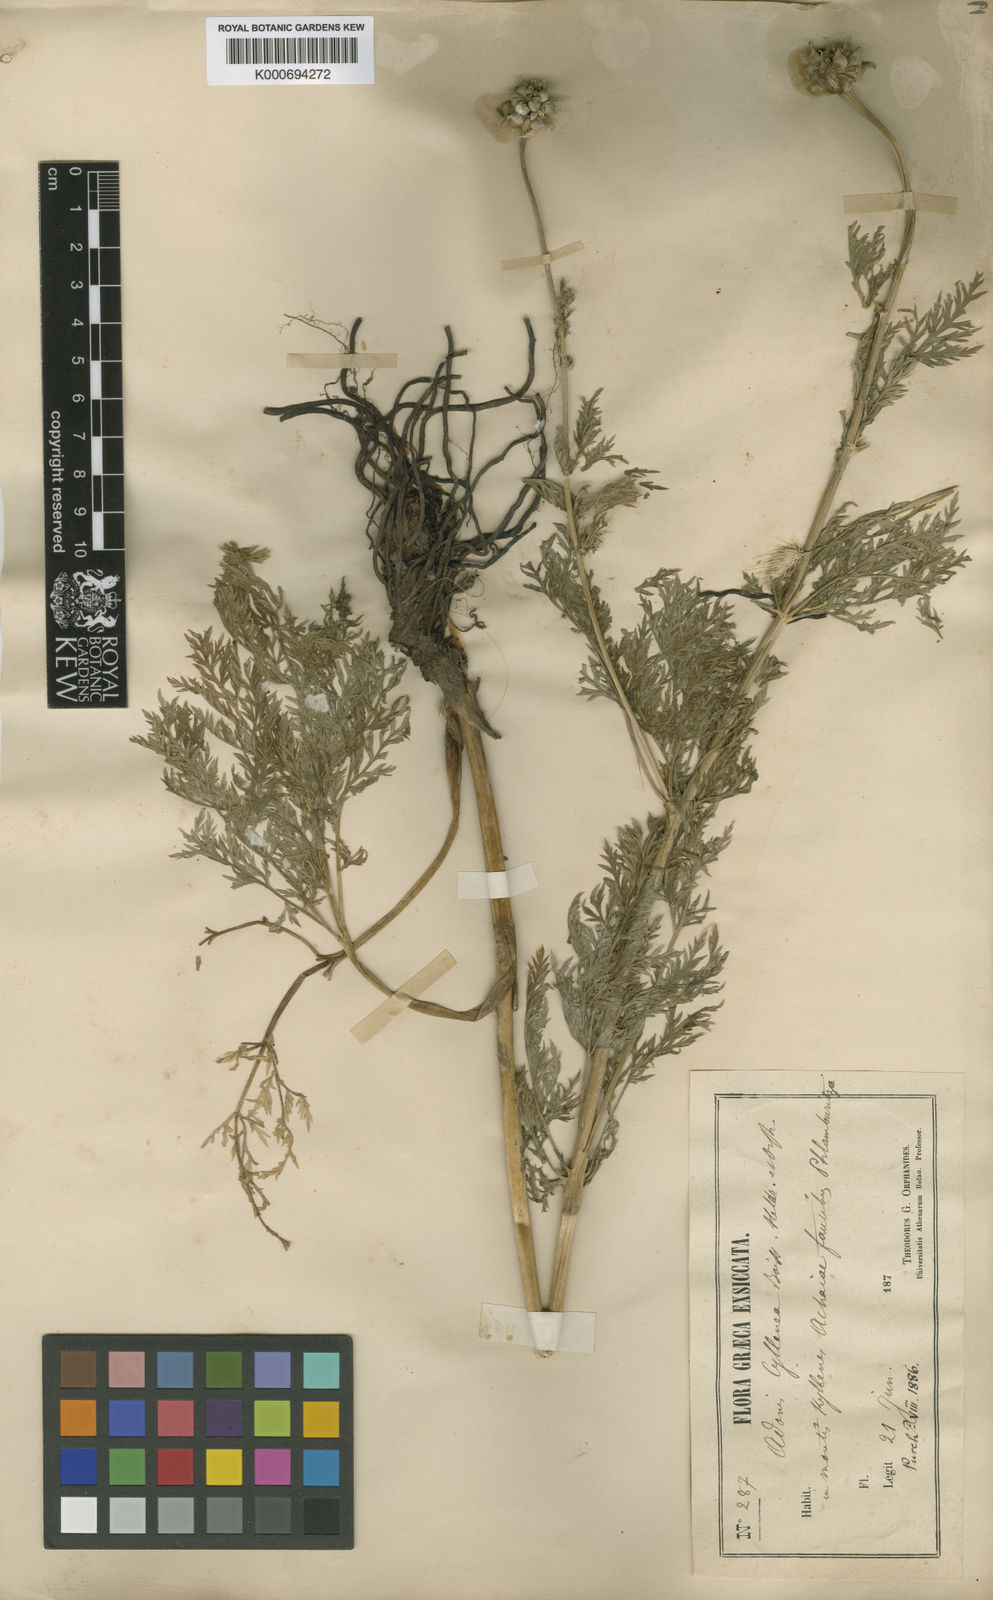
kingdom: Plantae
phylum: Tracheophyta
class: Magnoliopsida
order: Ranunculales
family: Ranunculaceae
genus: Adonis
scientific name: Adonis cyllenea
